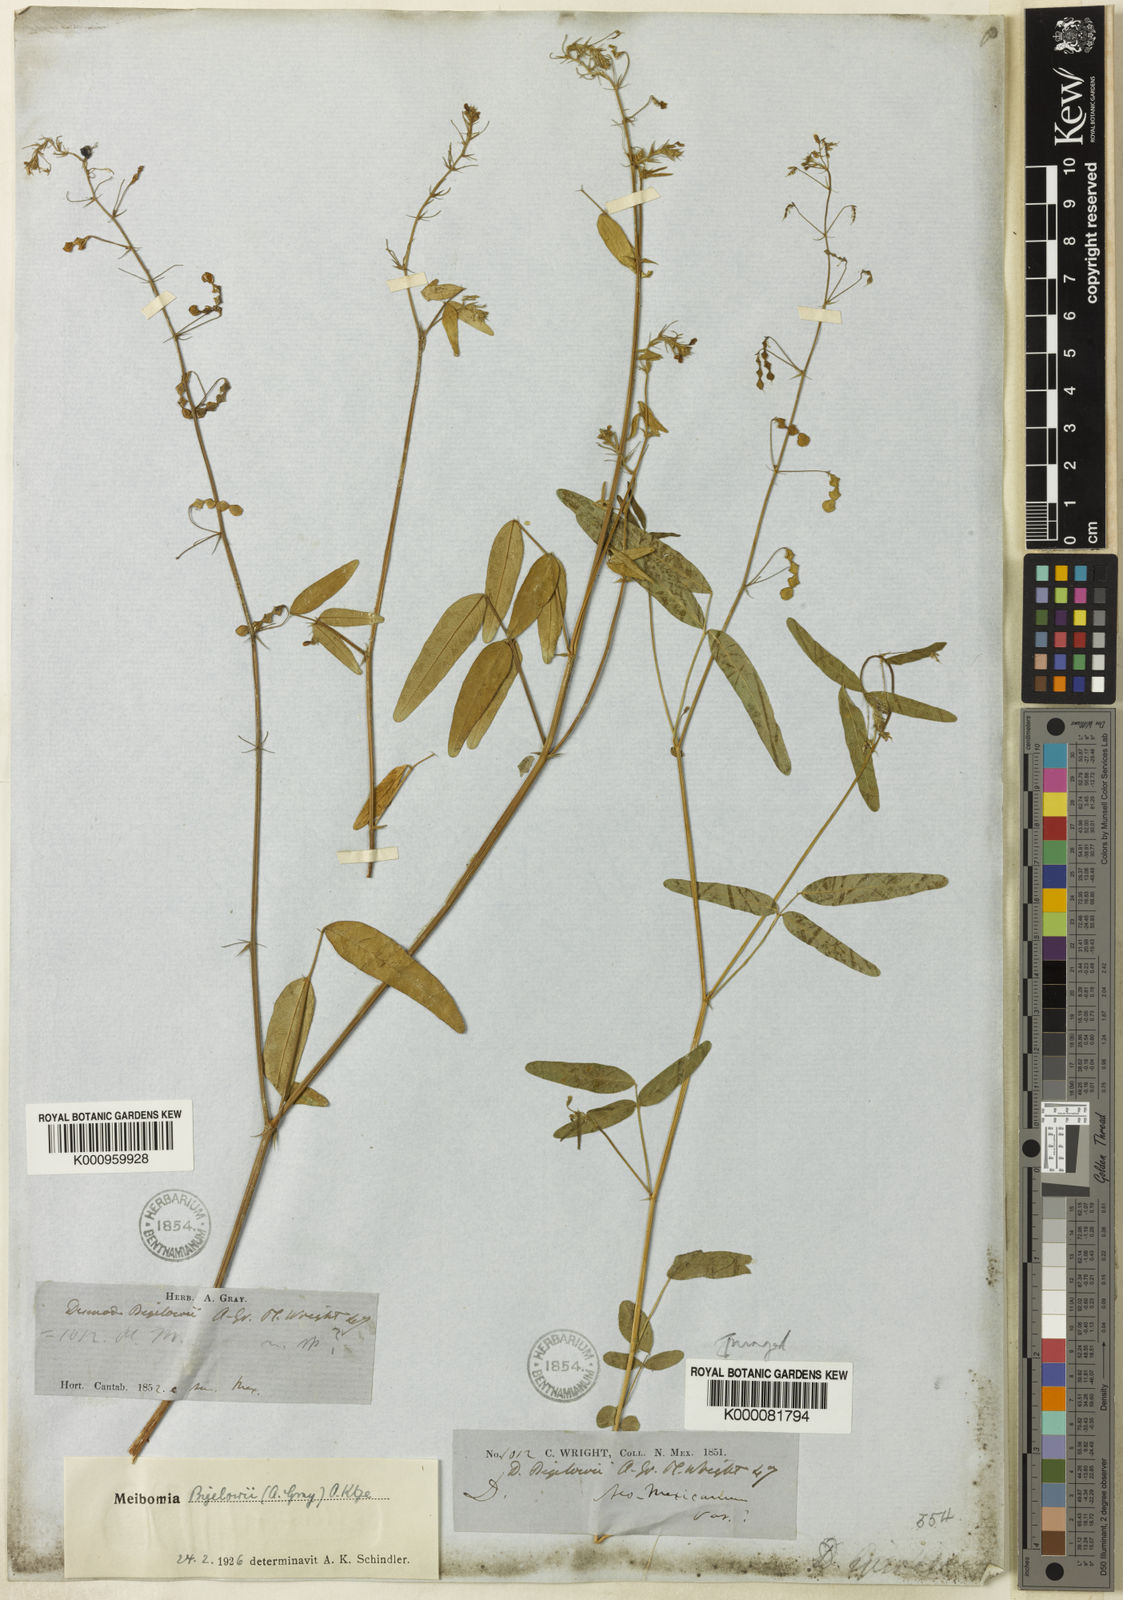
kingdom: Plantae
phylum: Tracheophyta
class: Magnoliopsida
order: Fabales
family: Fabaceae
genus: Desmodium
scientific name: Desmodium procumbens
